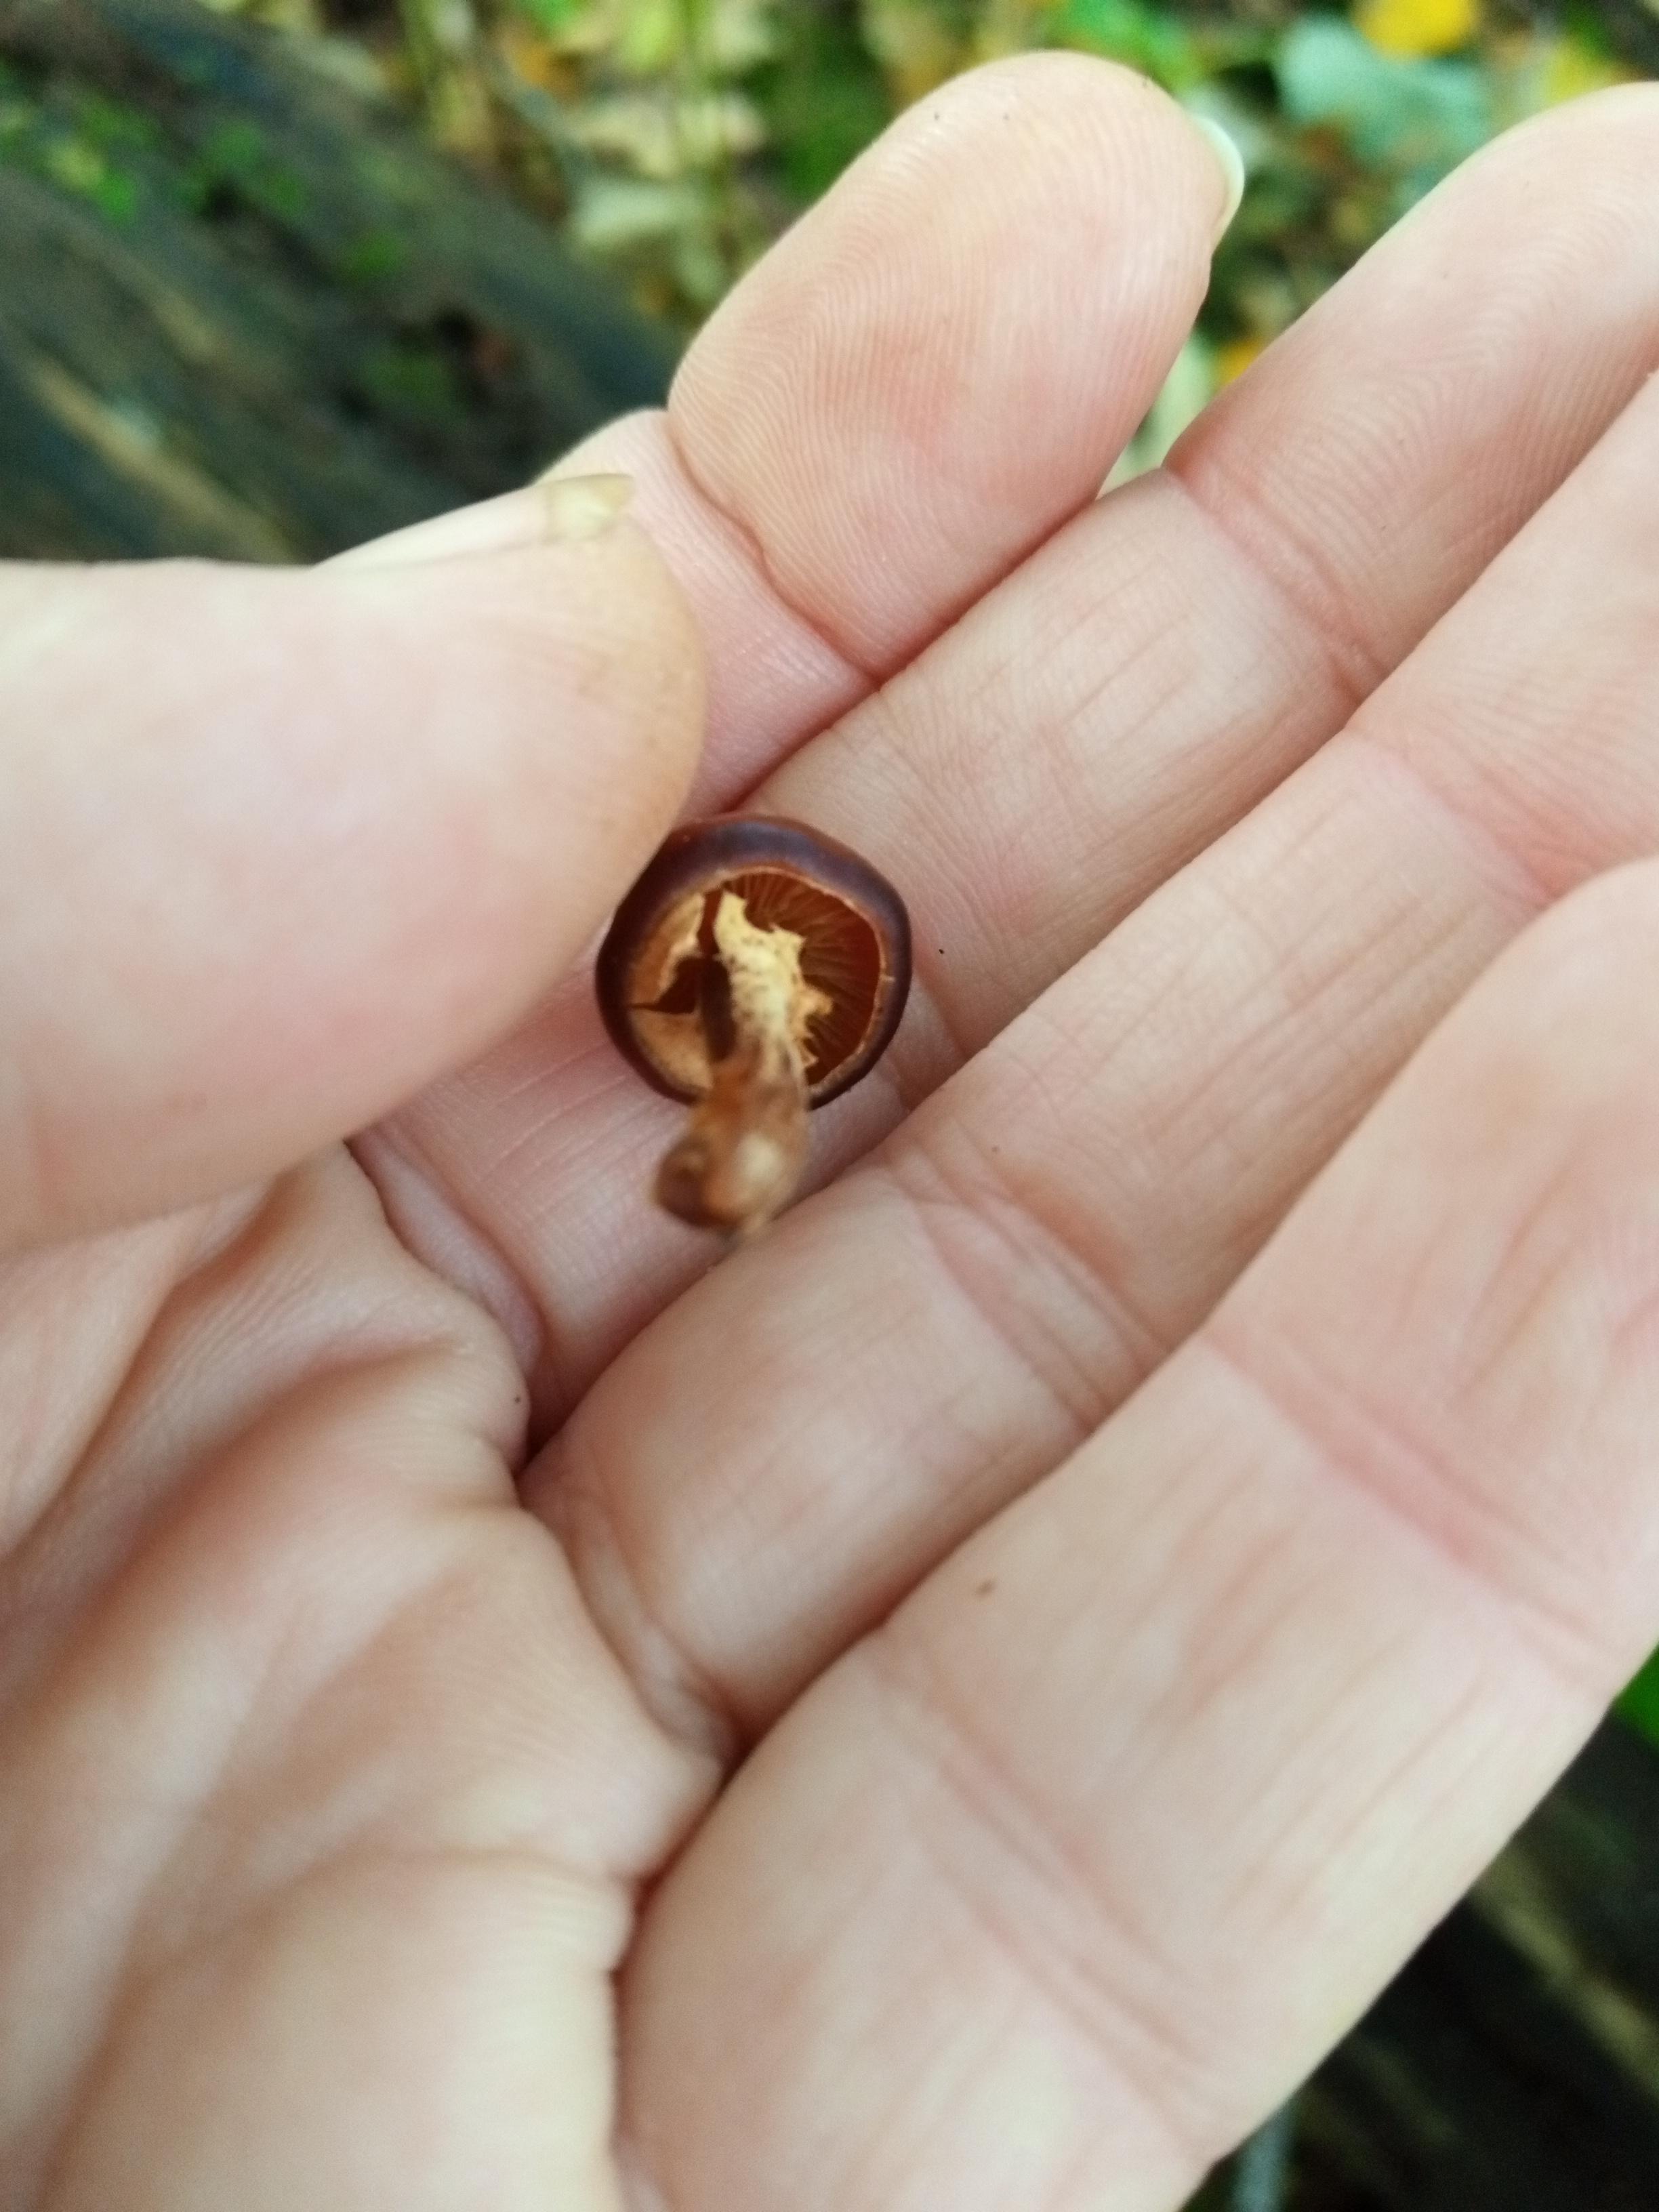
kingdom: Fungi
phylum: Basidiomycota
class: Agaricomycetes
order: Agaricales
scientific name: Agaricales
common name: champignonordenen
